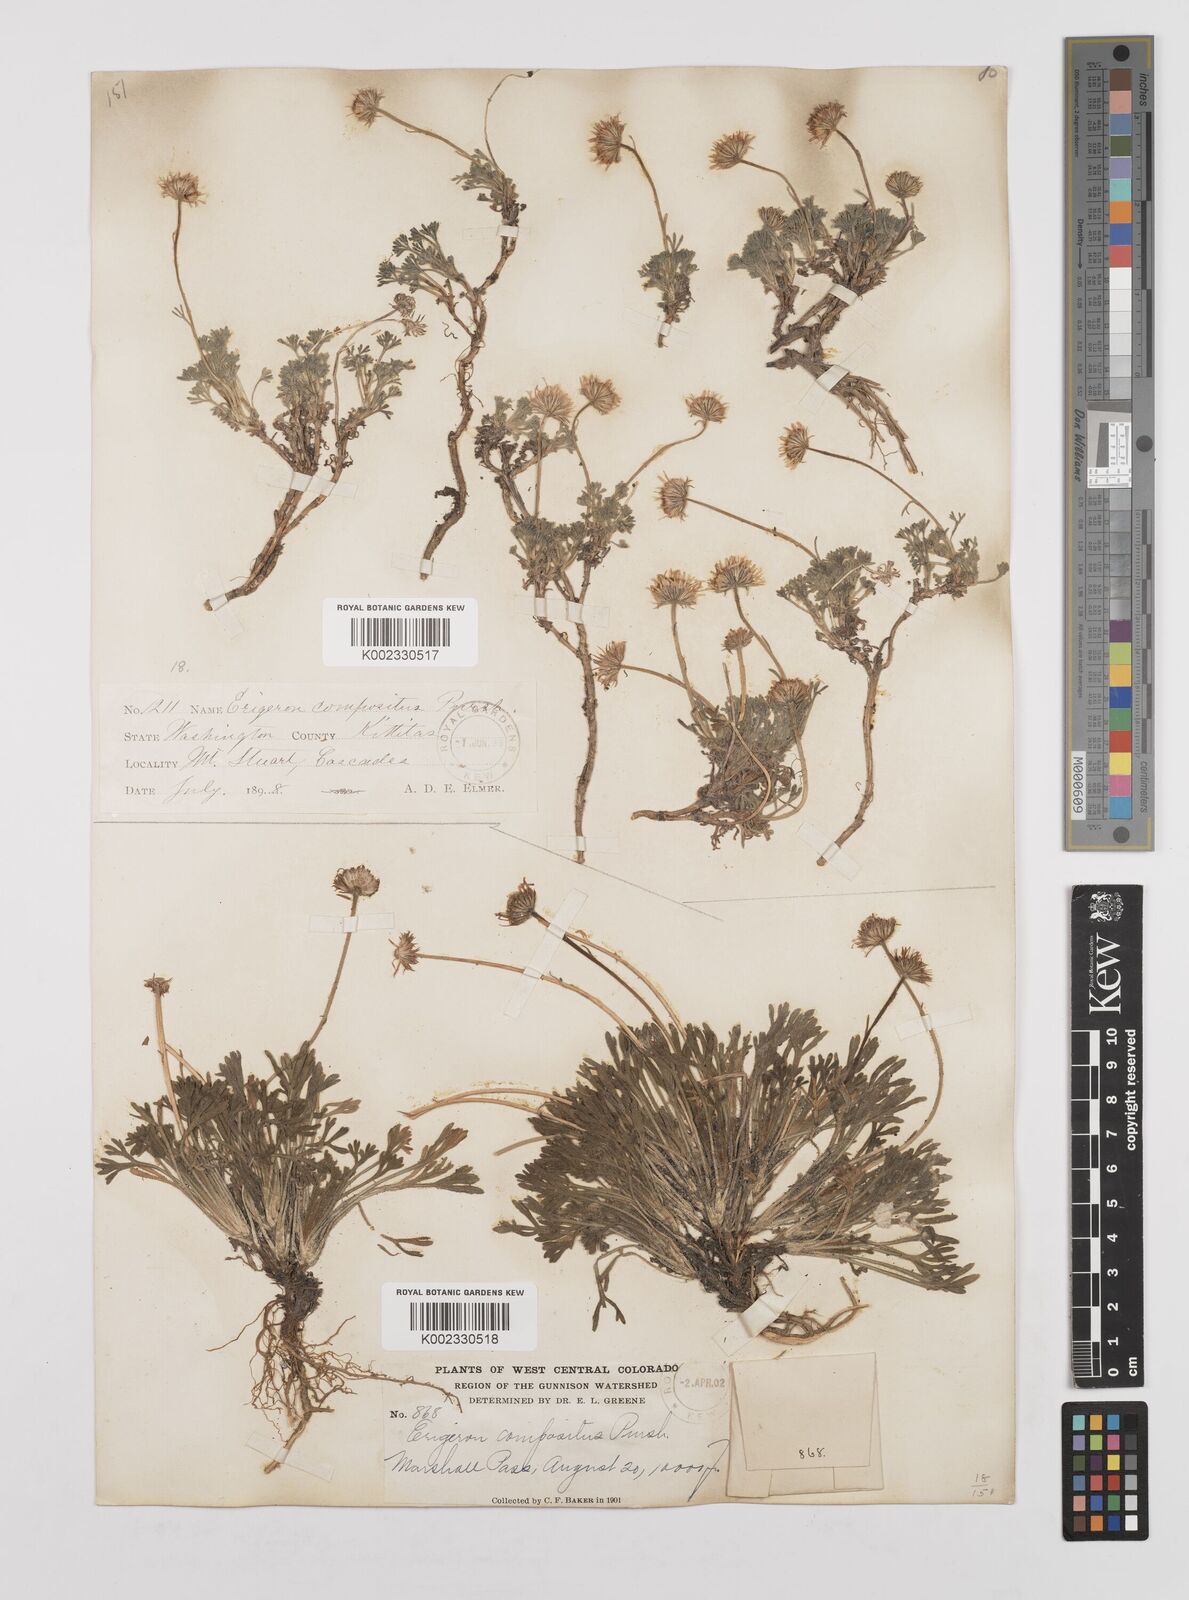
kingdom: Plantae
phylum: Tracheophyta
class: Magnoliopsida
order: Asterales
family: Asteraceae
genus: Erigeron
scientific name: Erigeron compositus
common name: Dwarf mountain fleabane
